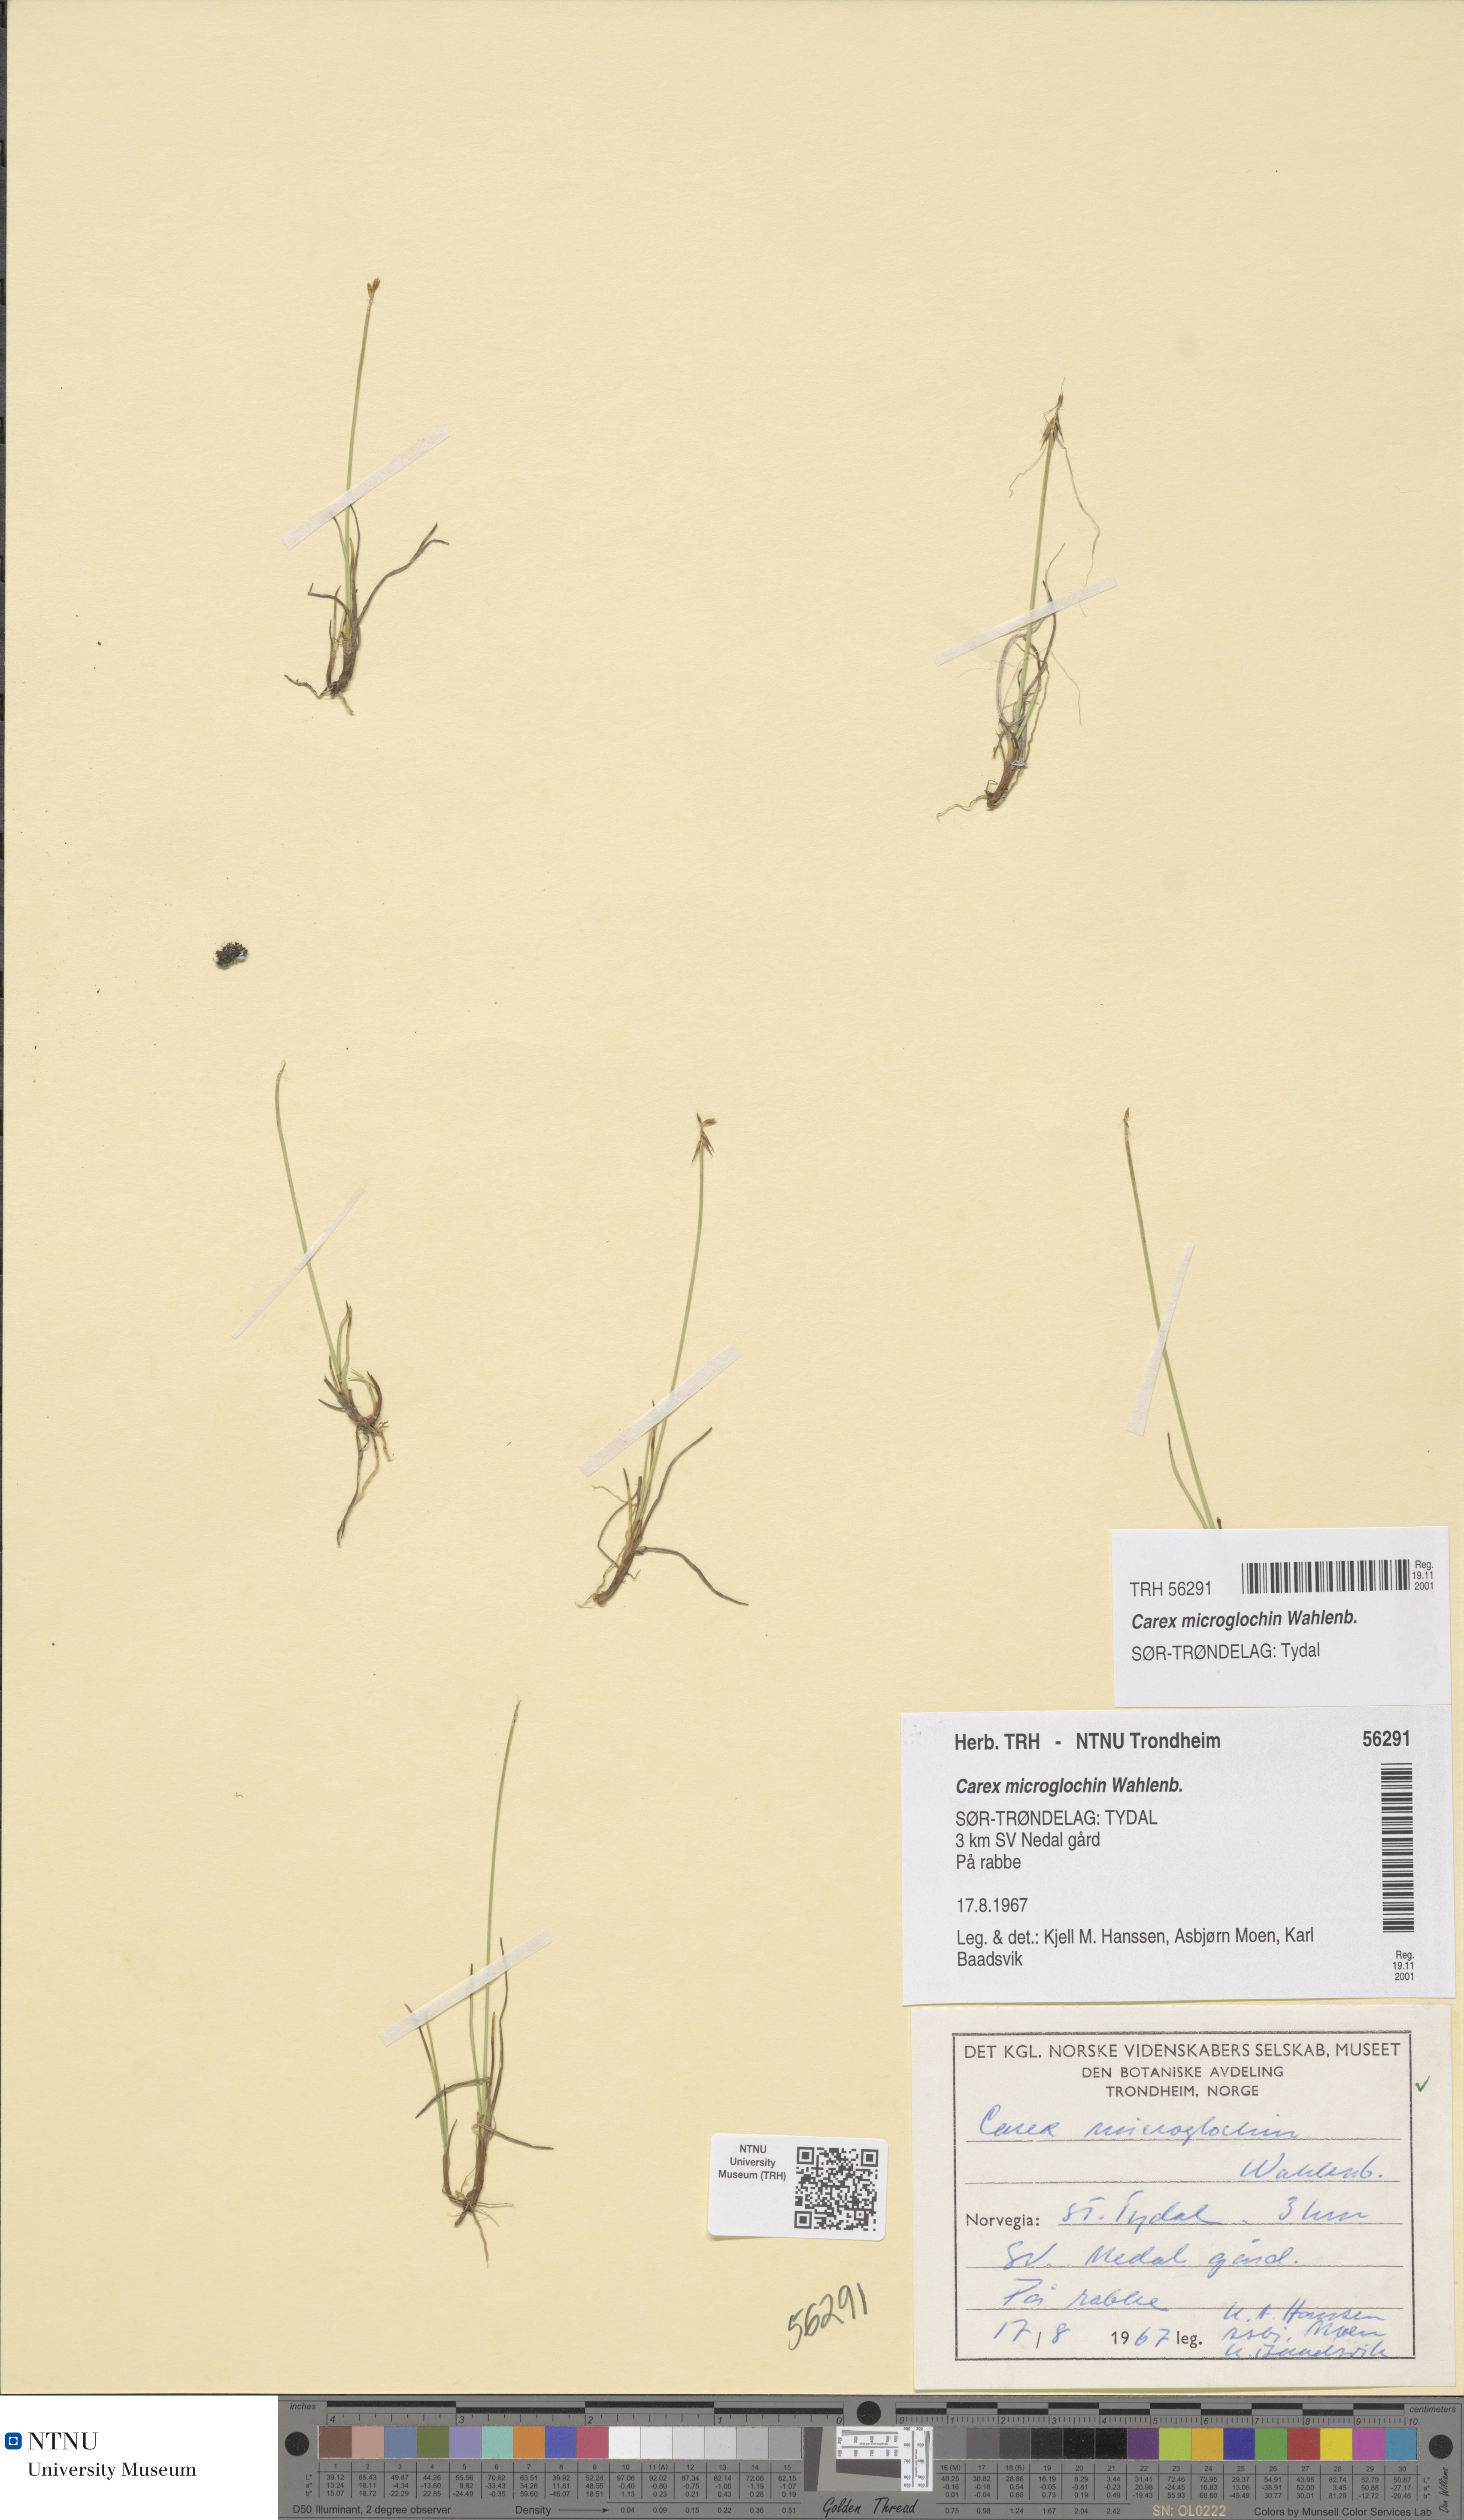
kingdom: Plantae
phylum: Tracheophyta
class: Liliopsida
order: Poales
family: Cyperaceae
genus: Carex
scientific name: Carex microglochin
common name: Bristle sedge
